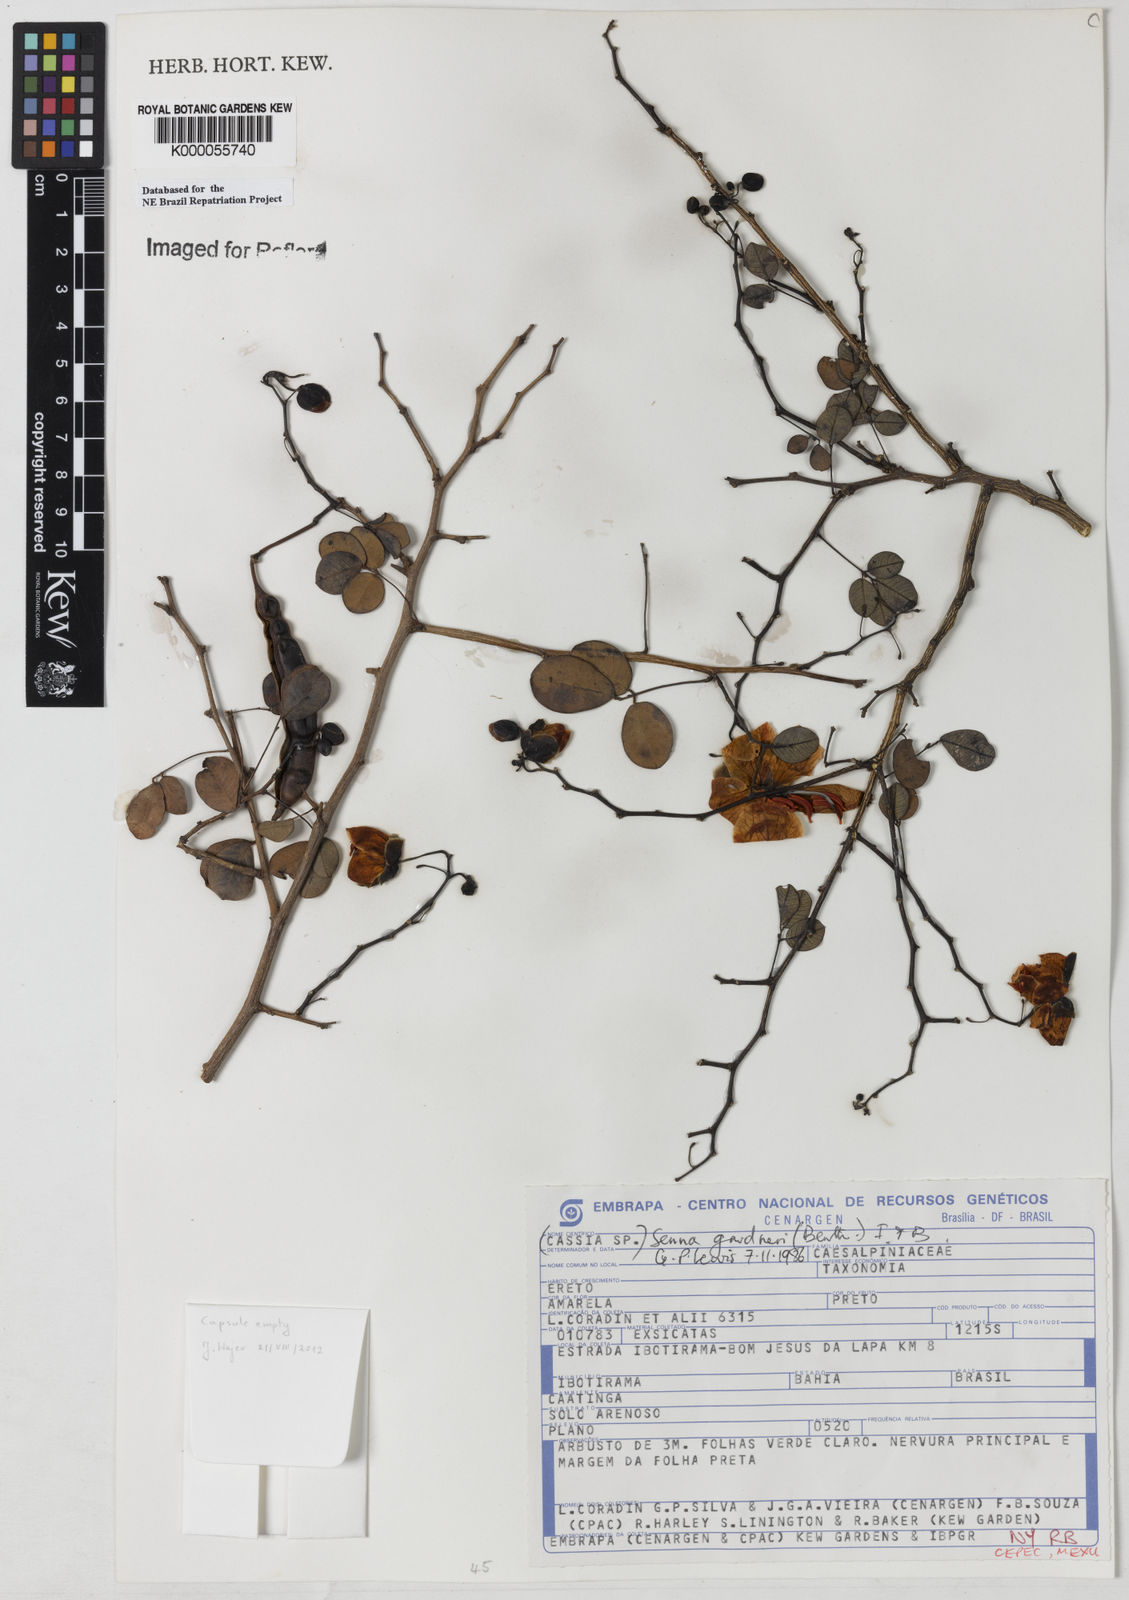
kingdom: Plantae
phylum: Tracheophyta
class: Magnoliopsida
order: Fabales
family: Fabaceae
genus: Senna
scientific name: Senna gardneri
